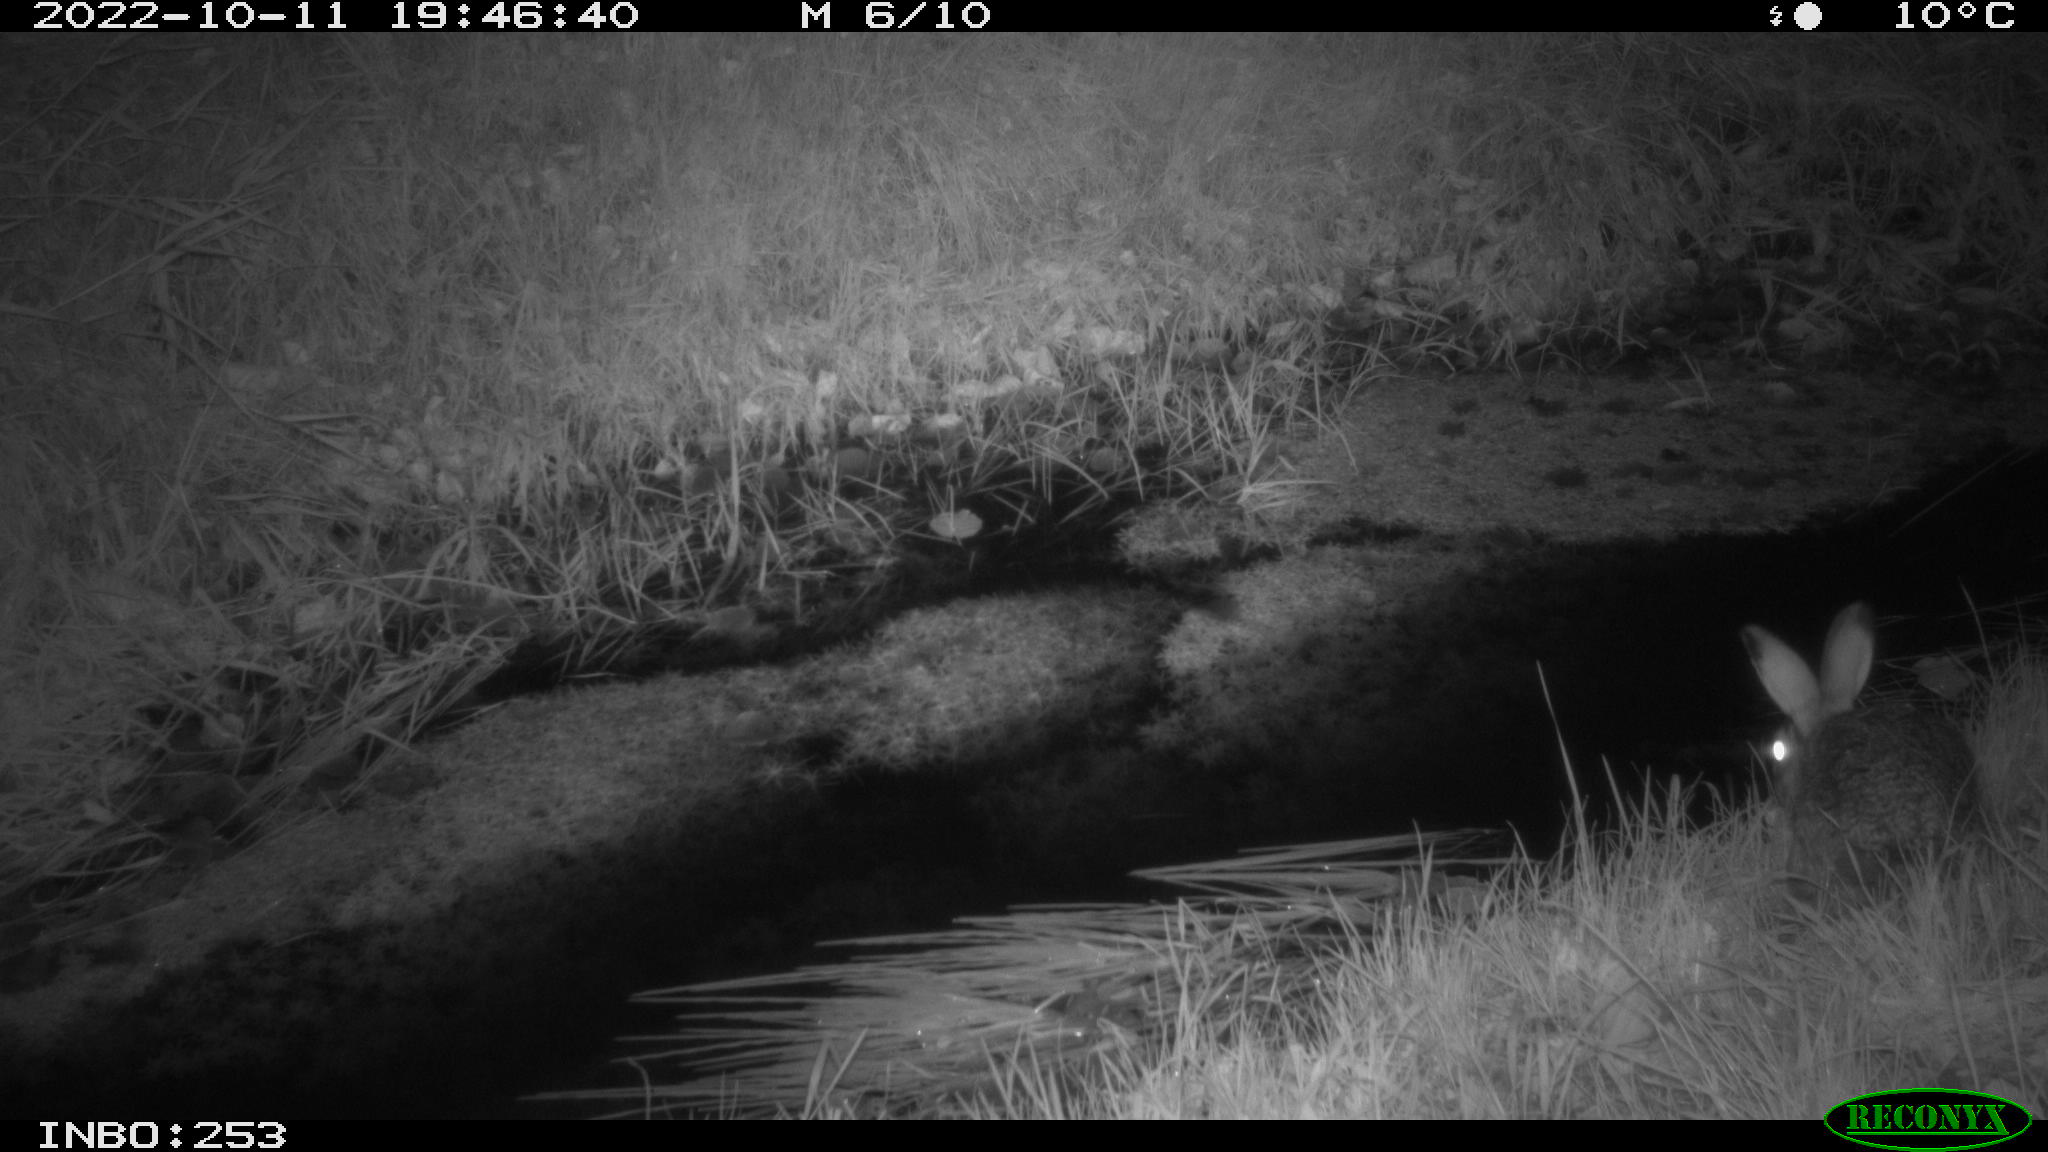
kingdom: Animalia
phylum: Chordata
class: Mammalia
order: Lagomorpha
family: Leporidae
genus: Lepus
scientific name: Lepus europaeus
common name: European hare
